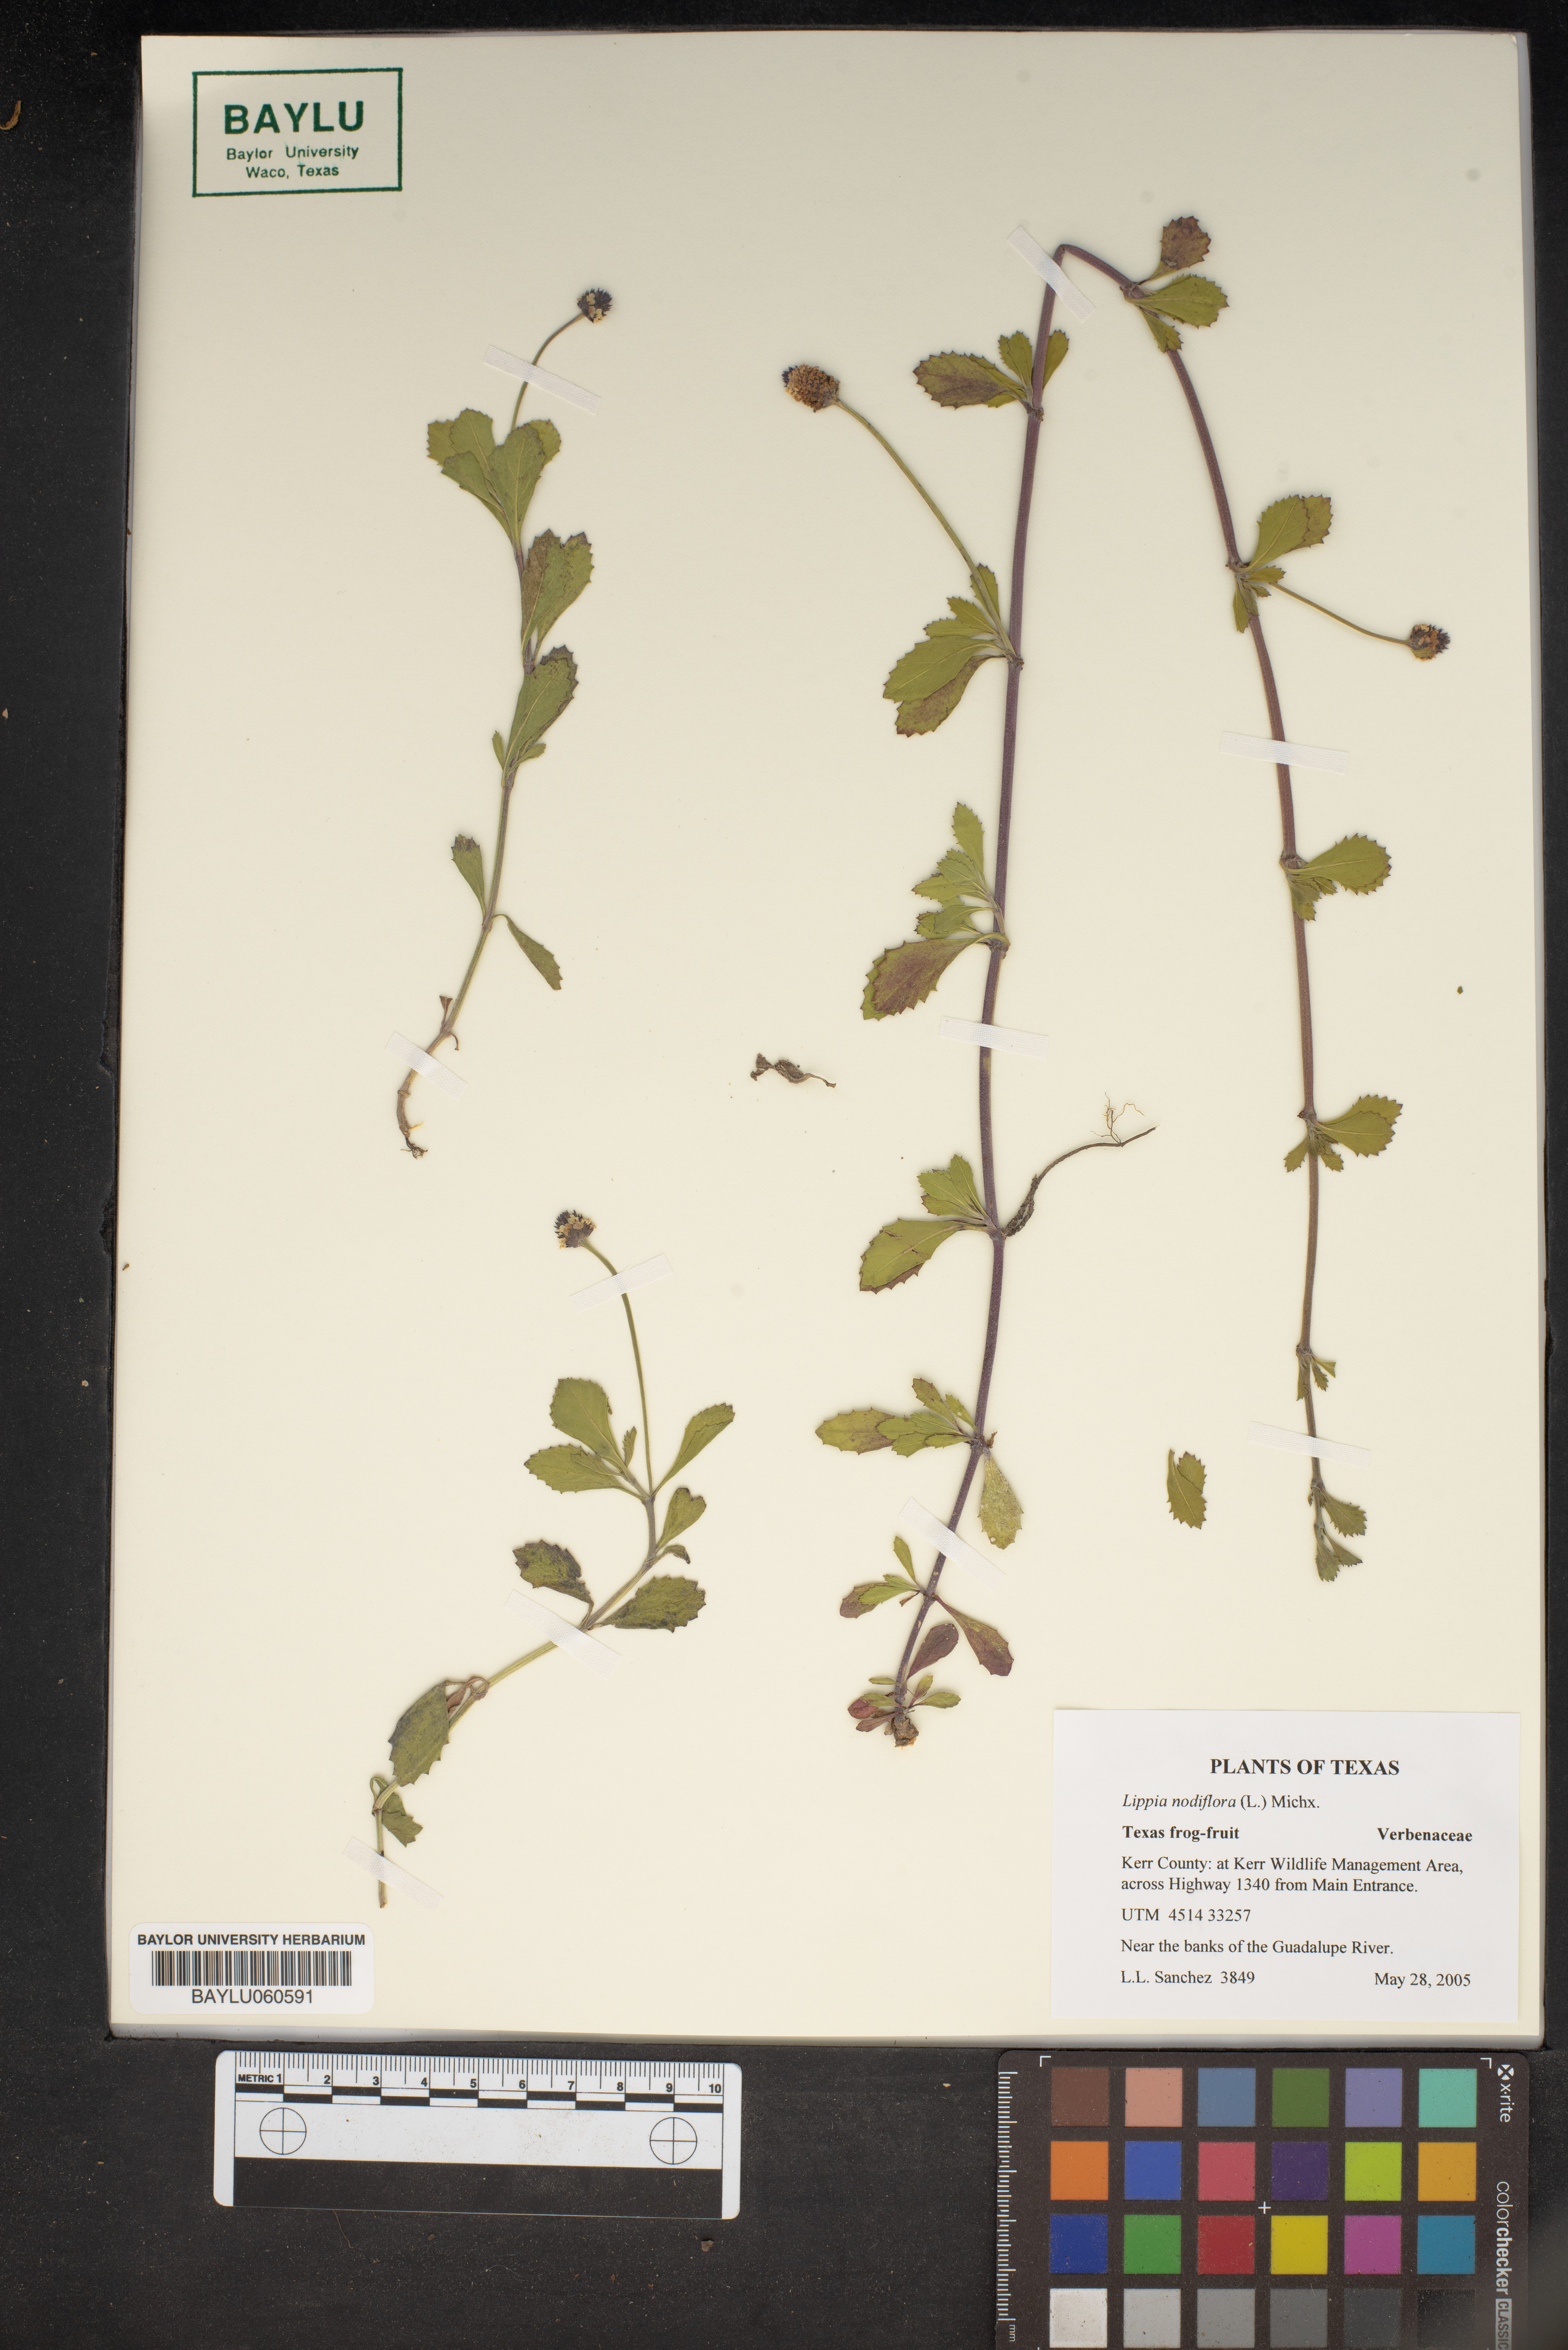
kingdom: Plantae
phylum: Tracheophyta
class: Magnoliopsida
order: Lamiales
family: Verbenaceae
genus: Phyla
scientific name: Phyla nodiflora
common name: Frogfruit
